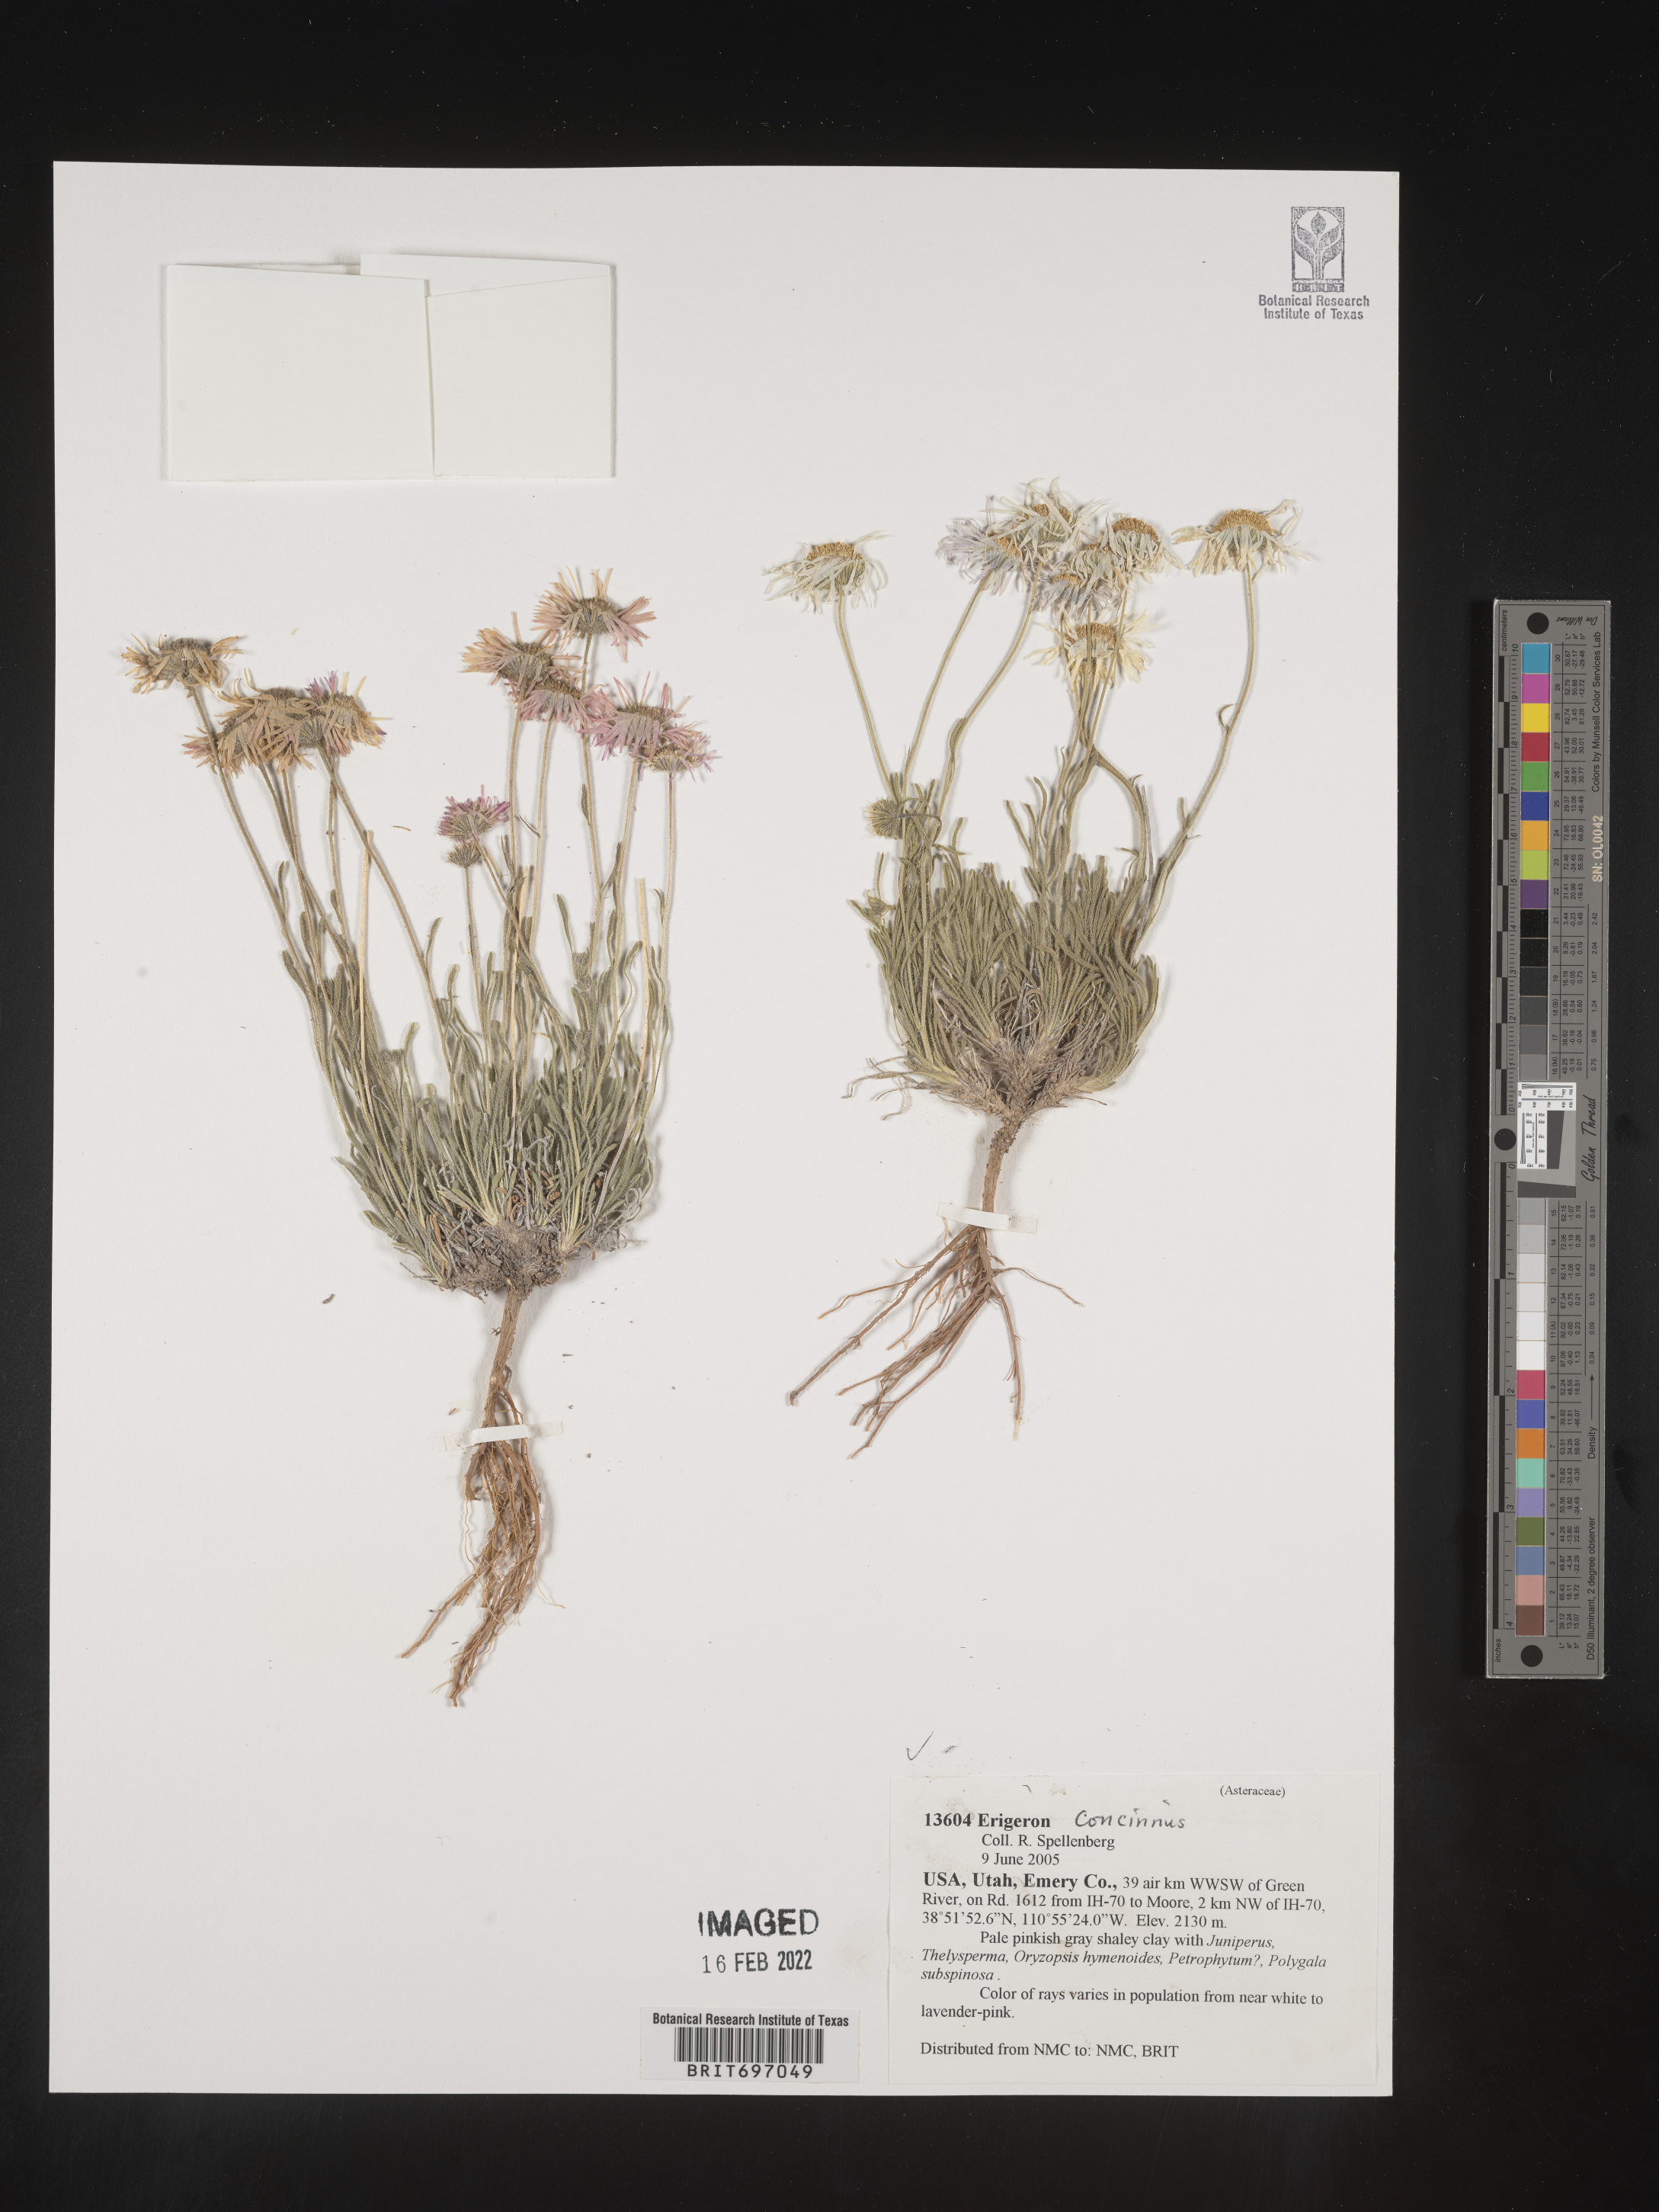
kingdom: Plantae
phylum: Tracheophyta
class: Magnoliopsida
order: Asterales
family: Asteraceae
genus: Erigeron
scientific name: Erigeron concinnus
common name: Navajo fleabane
